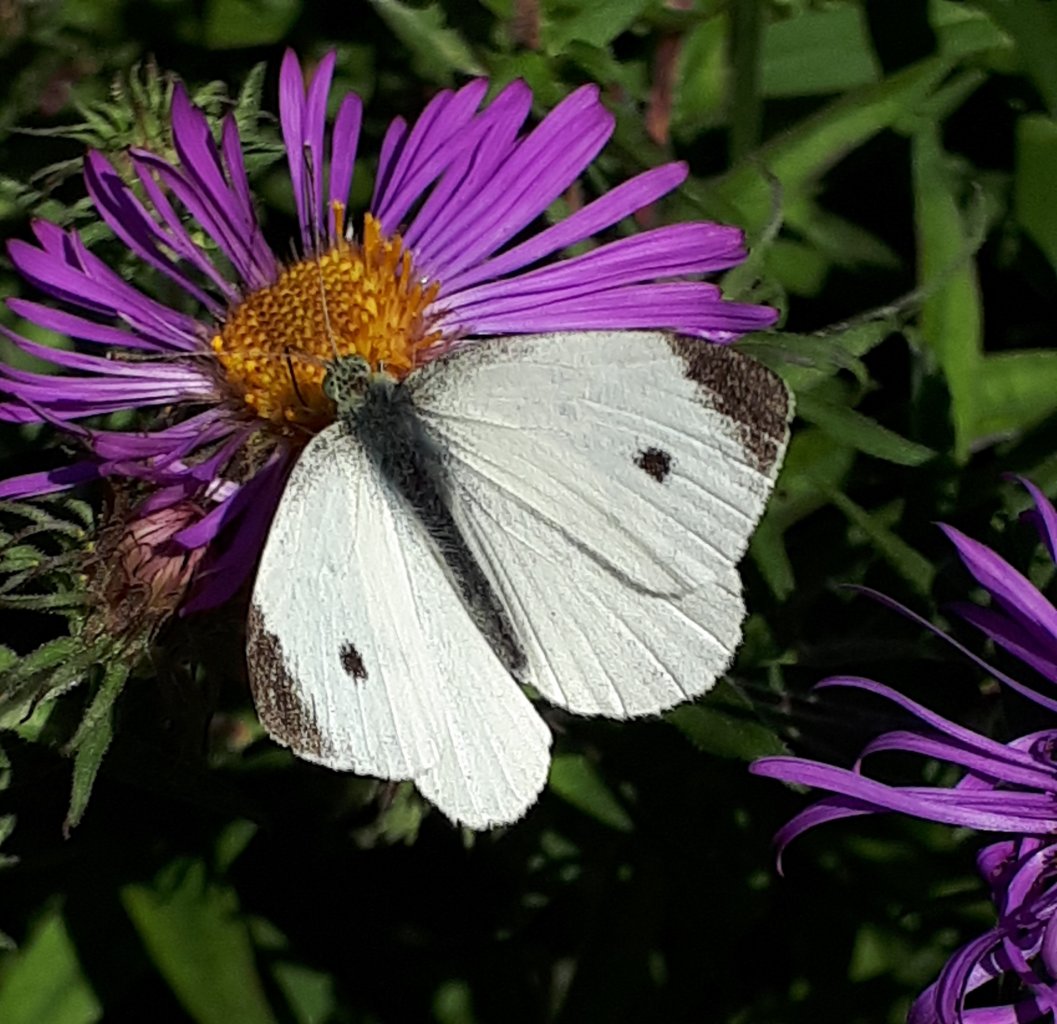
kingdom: Animalia
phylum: Arthropoda
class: Insecta
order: Lepidoptera
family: Pieridae
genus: Pieris
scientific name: Pieris rapae
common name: Cabbage White
